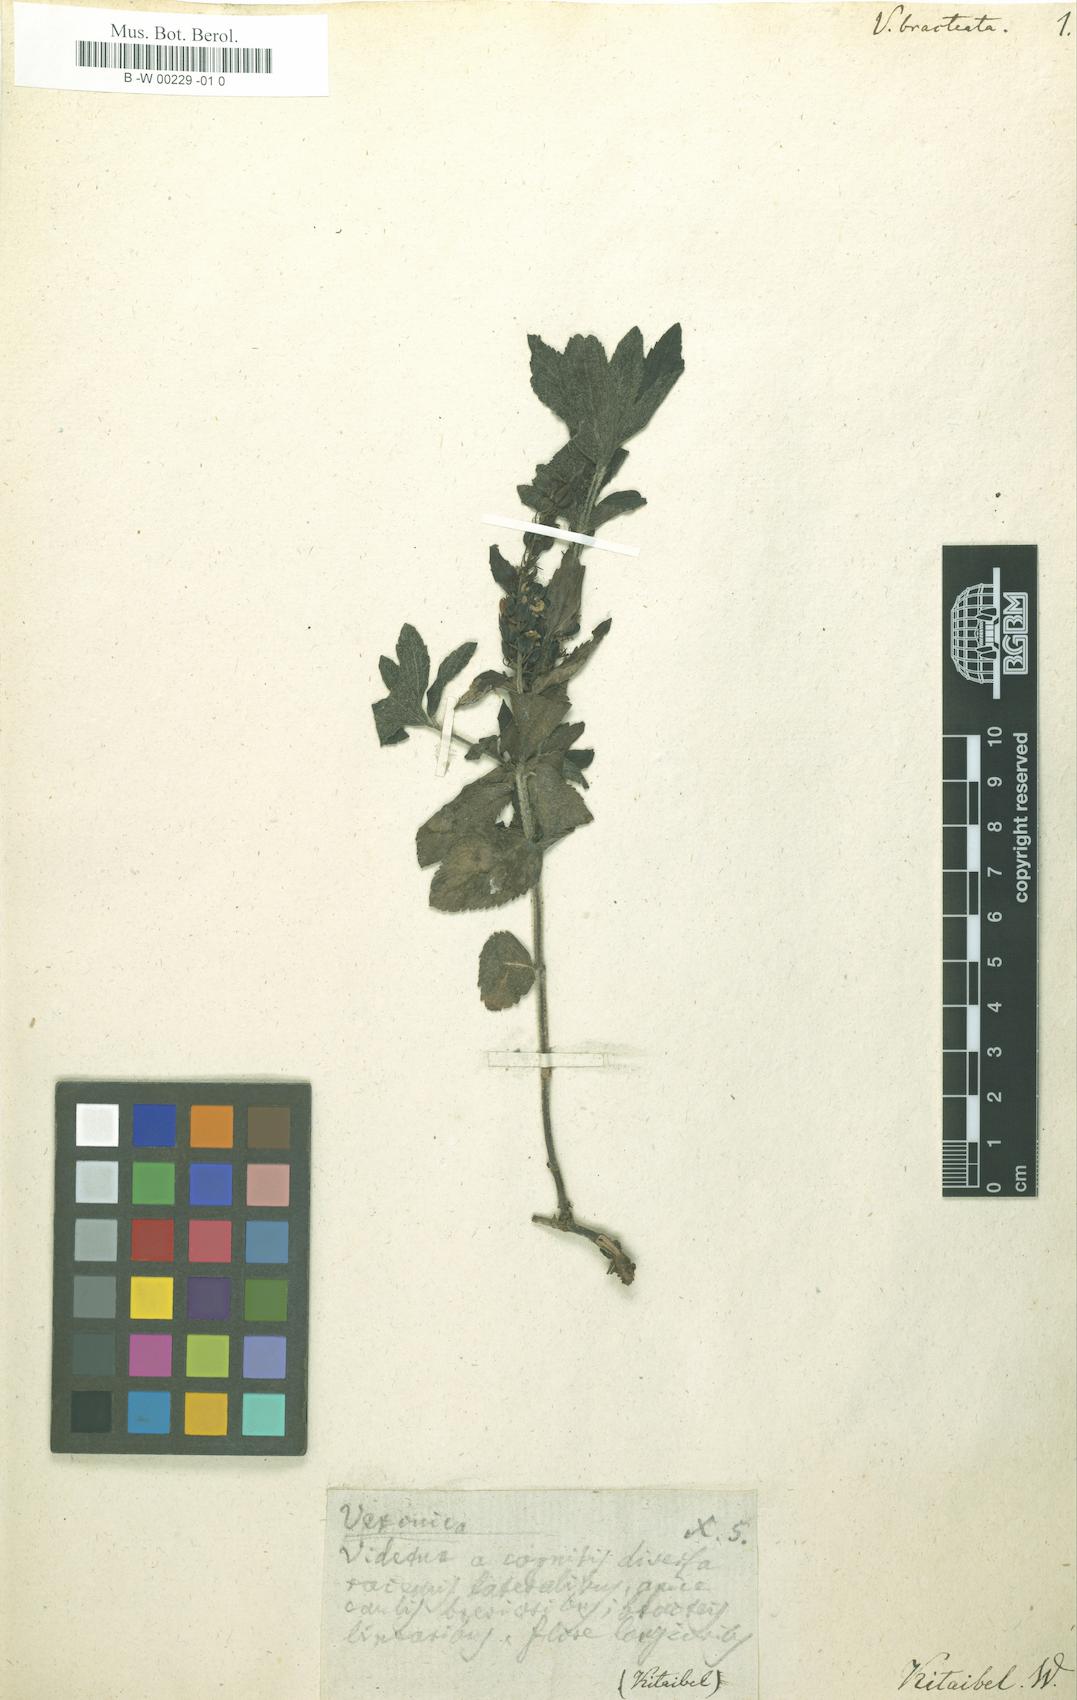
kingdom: Plantae
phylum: Tracheophyta
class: Magnoliopsida
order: Lamiales
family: Plantaginaceae
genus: Veronica
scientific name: Veronica
